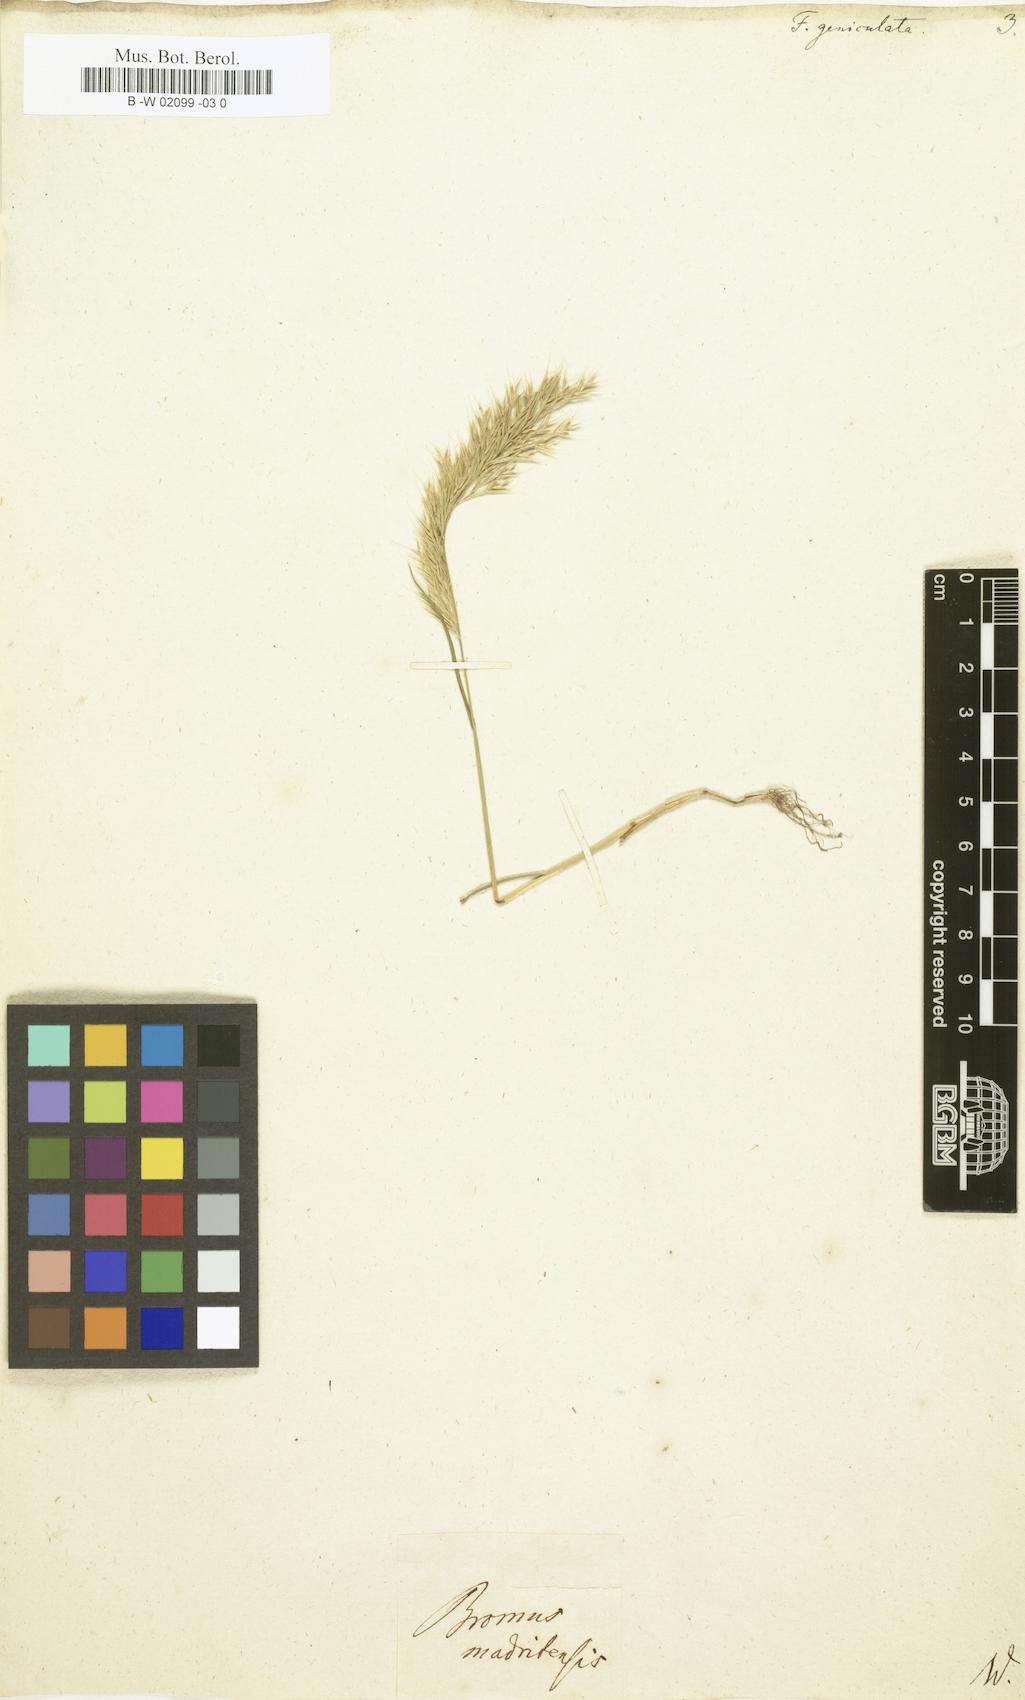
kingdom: Plantae
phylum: Tracheophyta
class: Liliopsida
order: Poales
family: Poaceae
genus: Festuca
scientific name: Festuca geniculata
